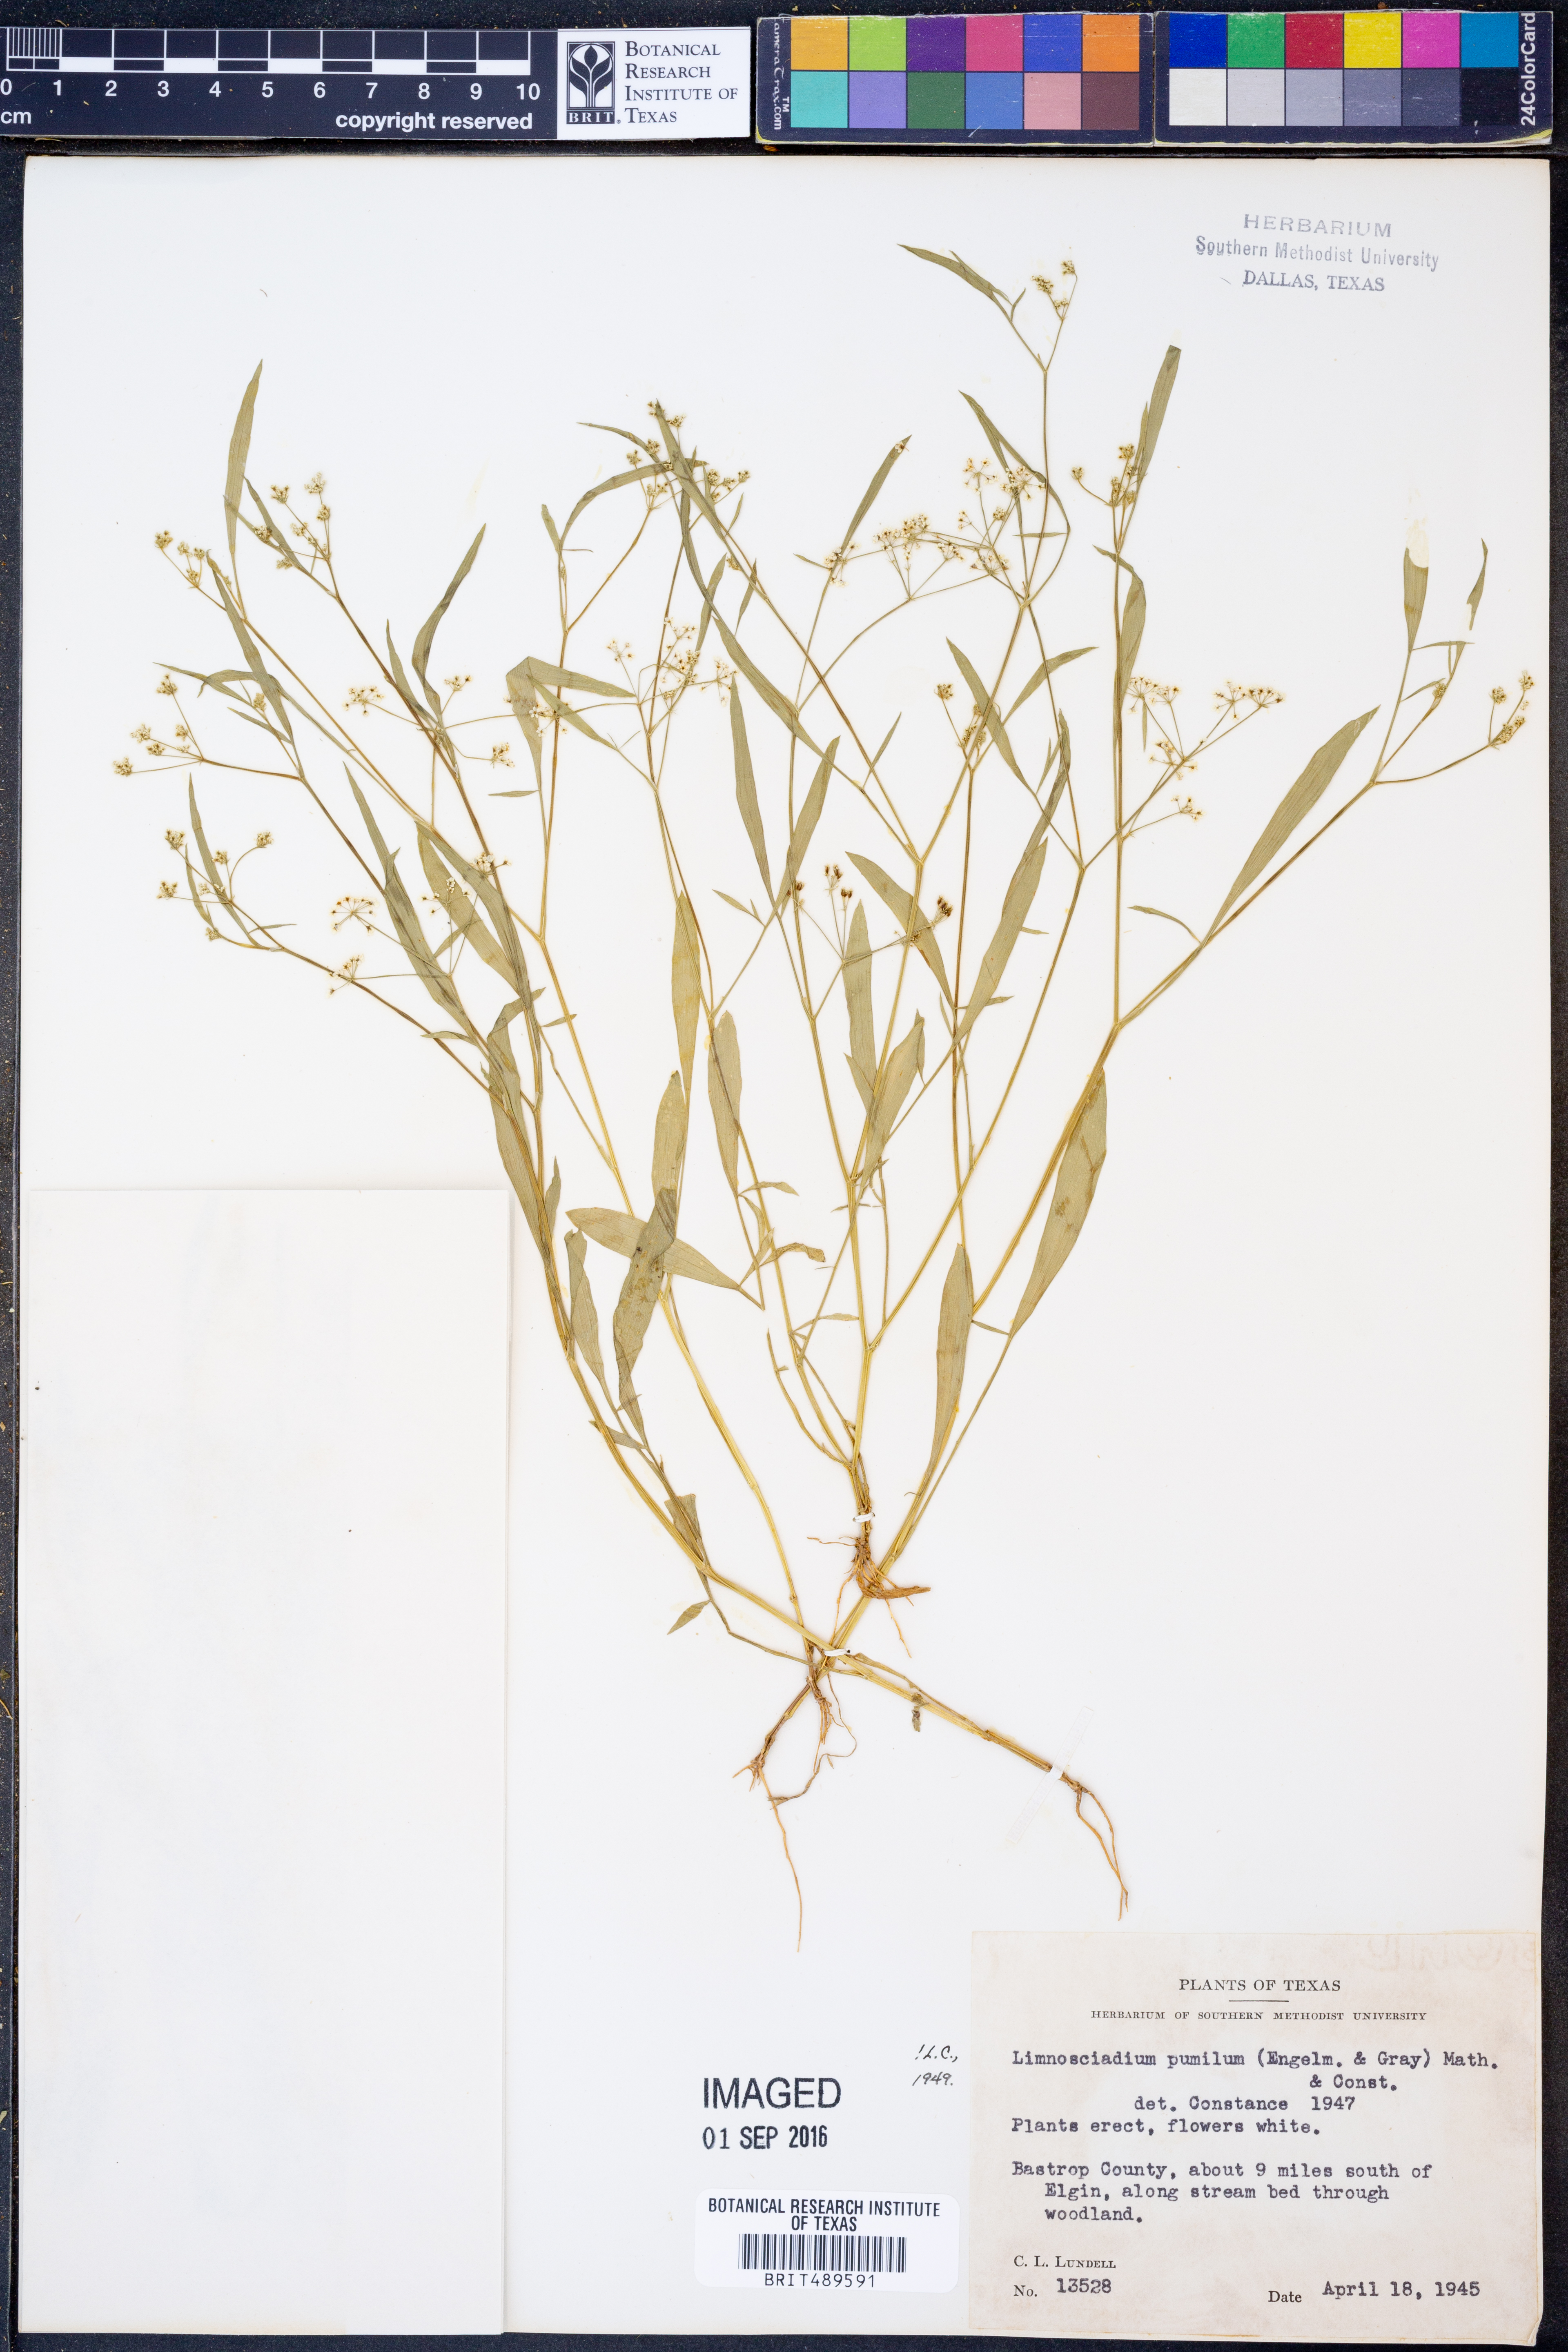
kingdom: Plantae
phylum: Tracheophyta
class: Magnoliopsida
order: Apiales
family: Apiaceae
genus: Limnosciadium
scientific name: Limnosciadium pinnatum
